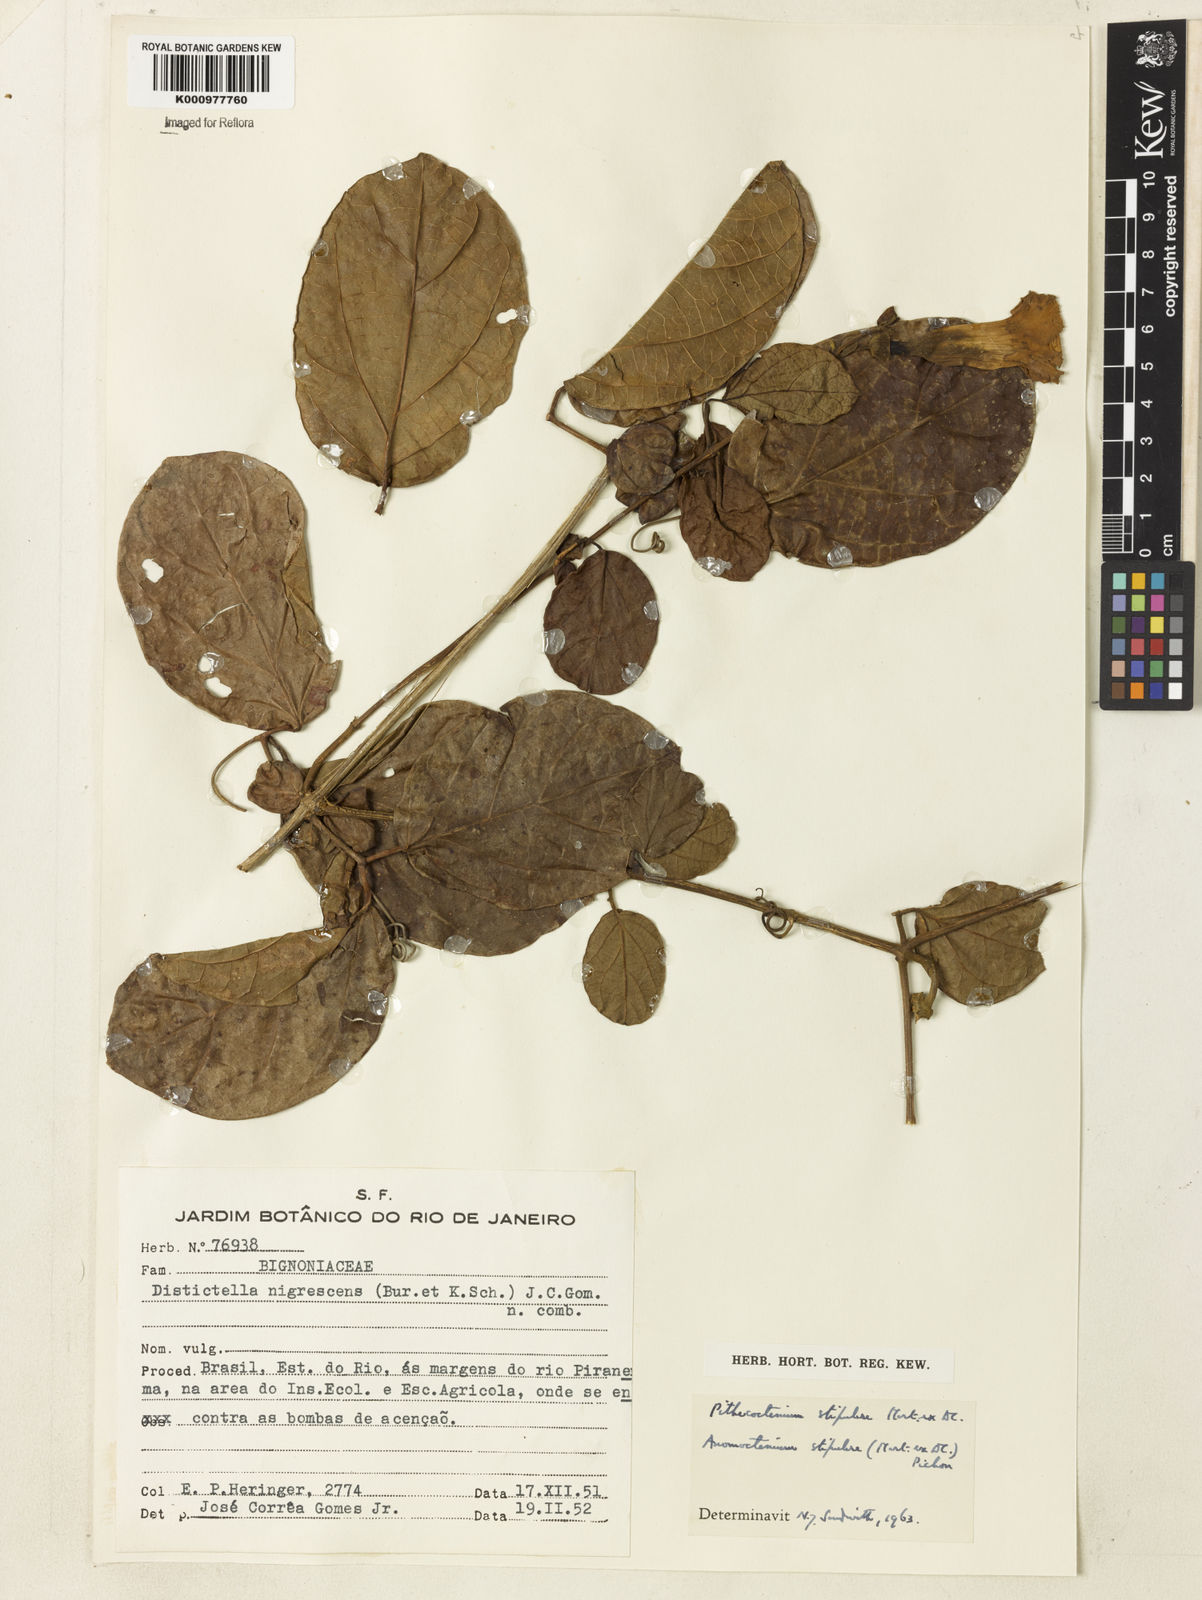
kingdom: Plantae
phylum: Tracheophyta
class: Magnoliopsida
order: Lamiales
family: Bignoniaceae
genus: Pithecoctenium
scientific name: Pithecoctenium
